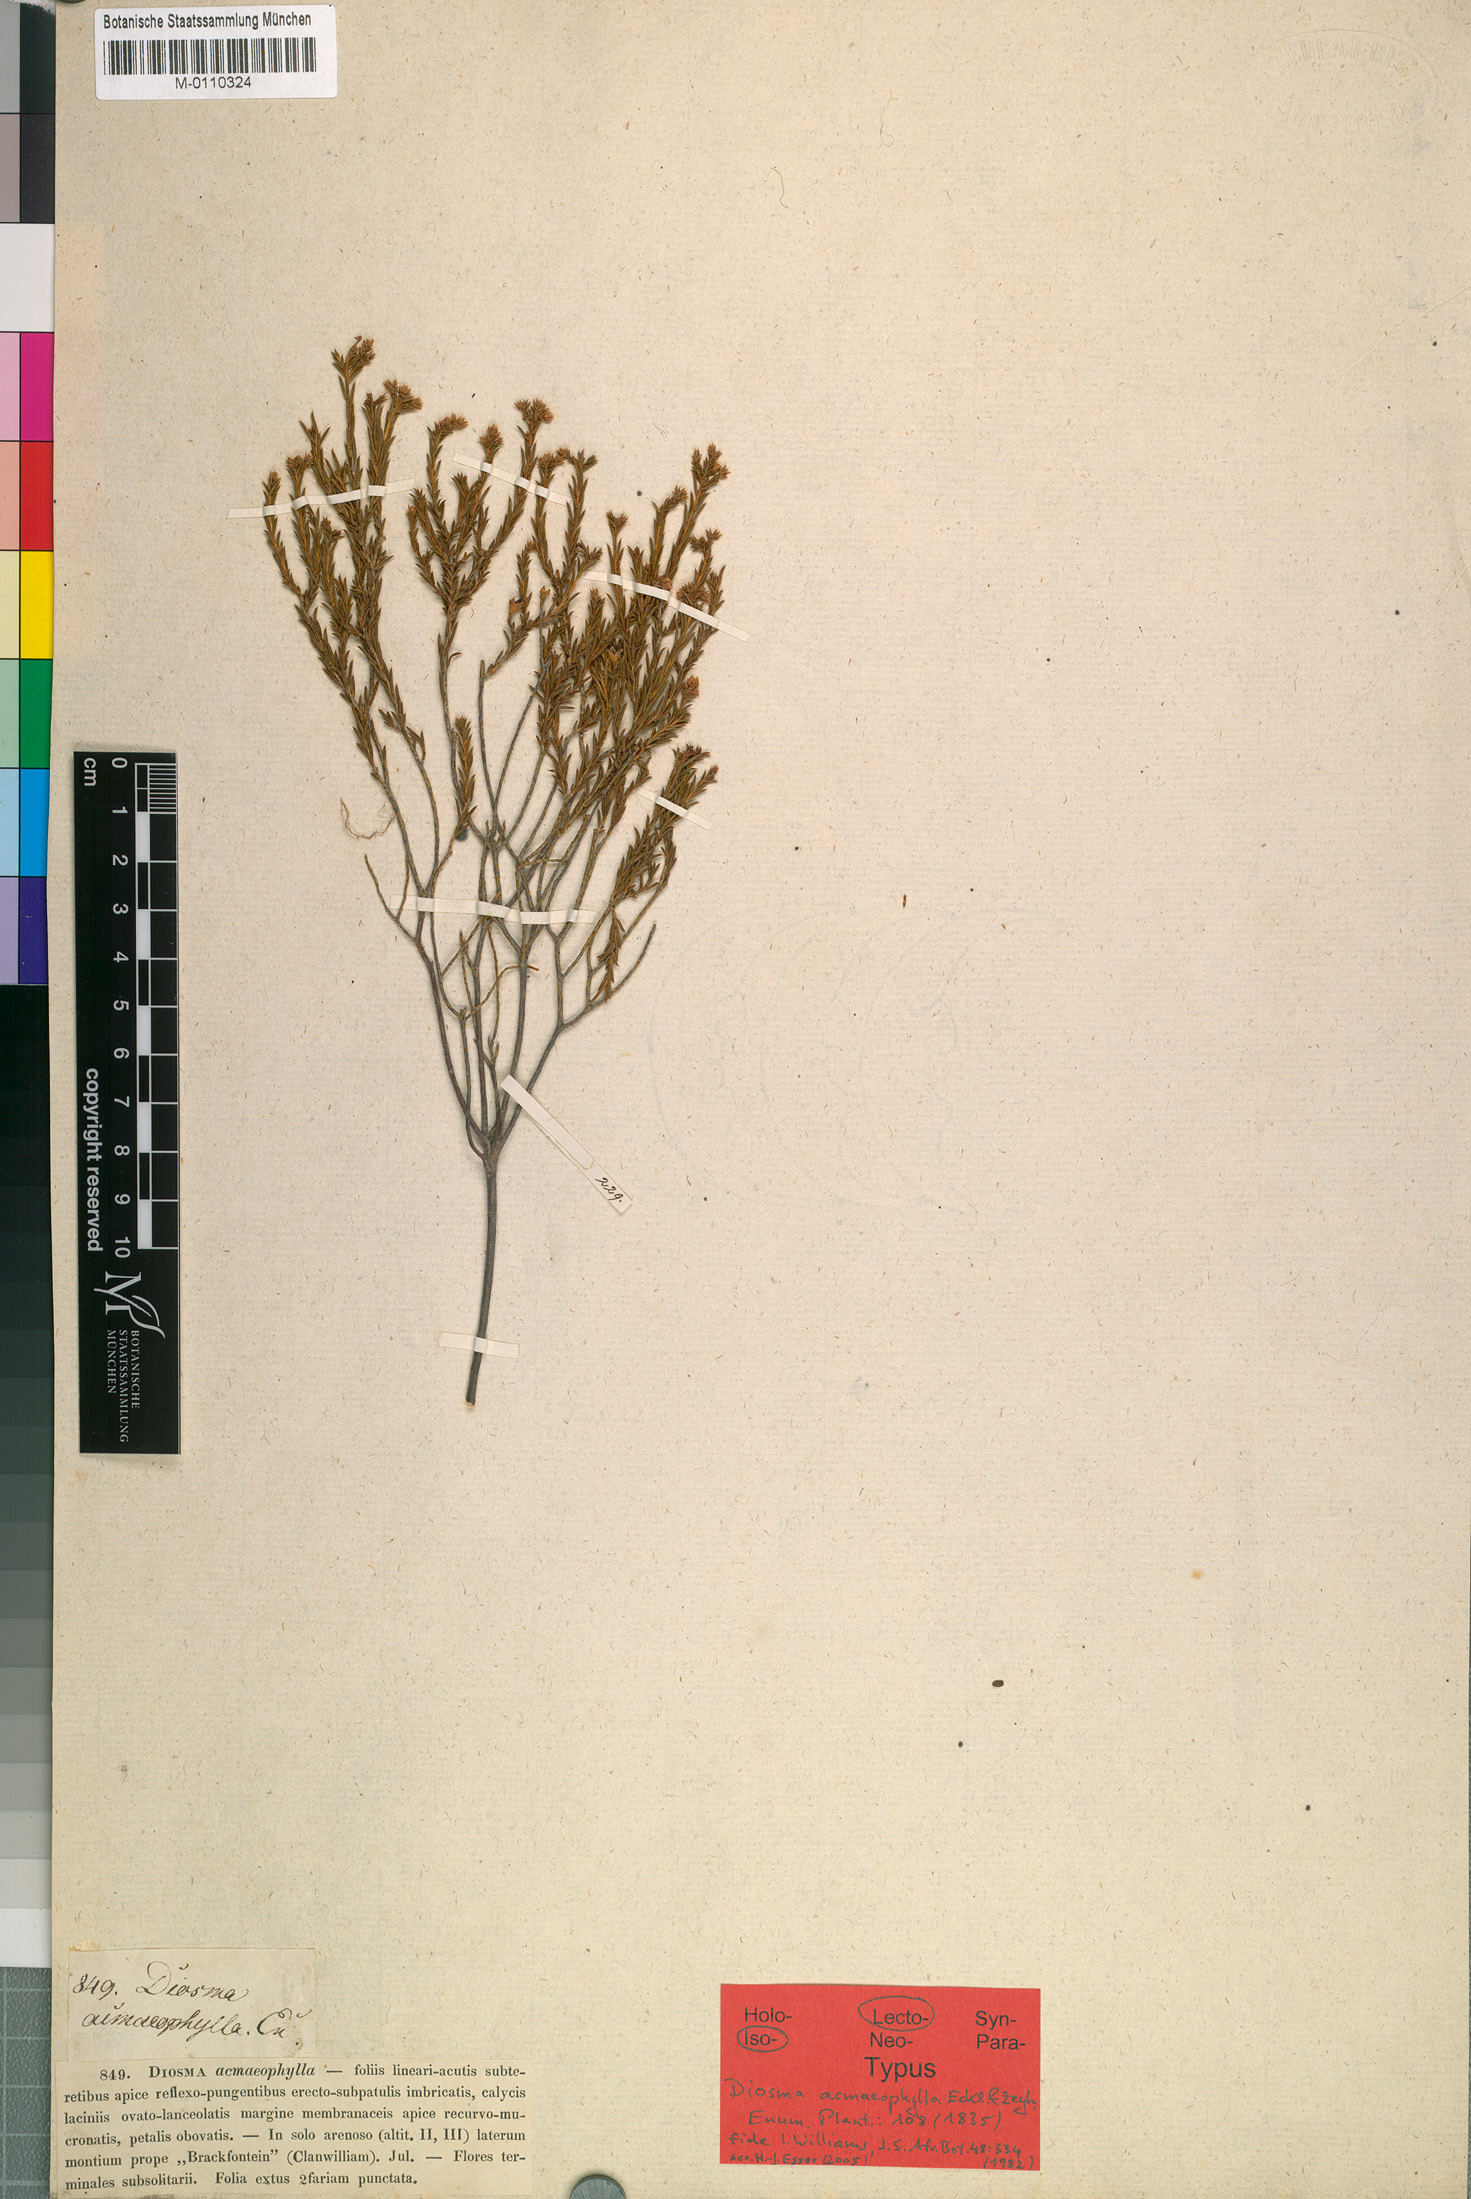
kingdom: Plantae
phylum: Tracheophyta
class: Magnoliopsida
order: Sapindales
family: Rutaceae
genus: Diosma
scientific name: Diosma acmaeophylla
